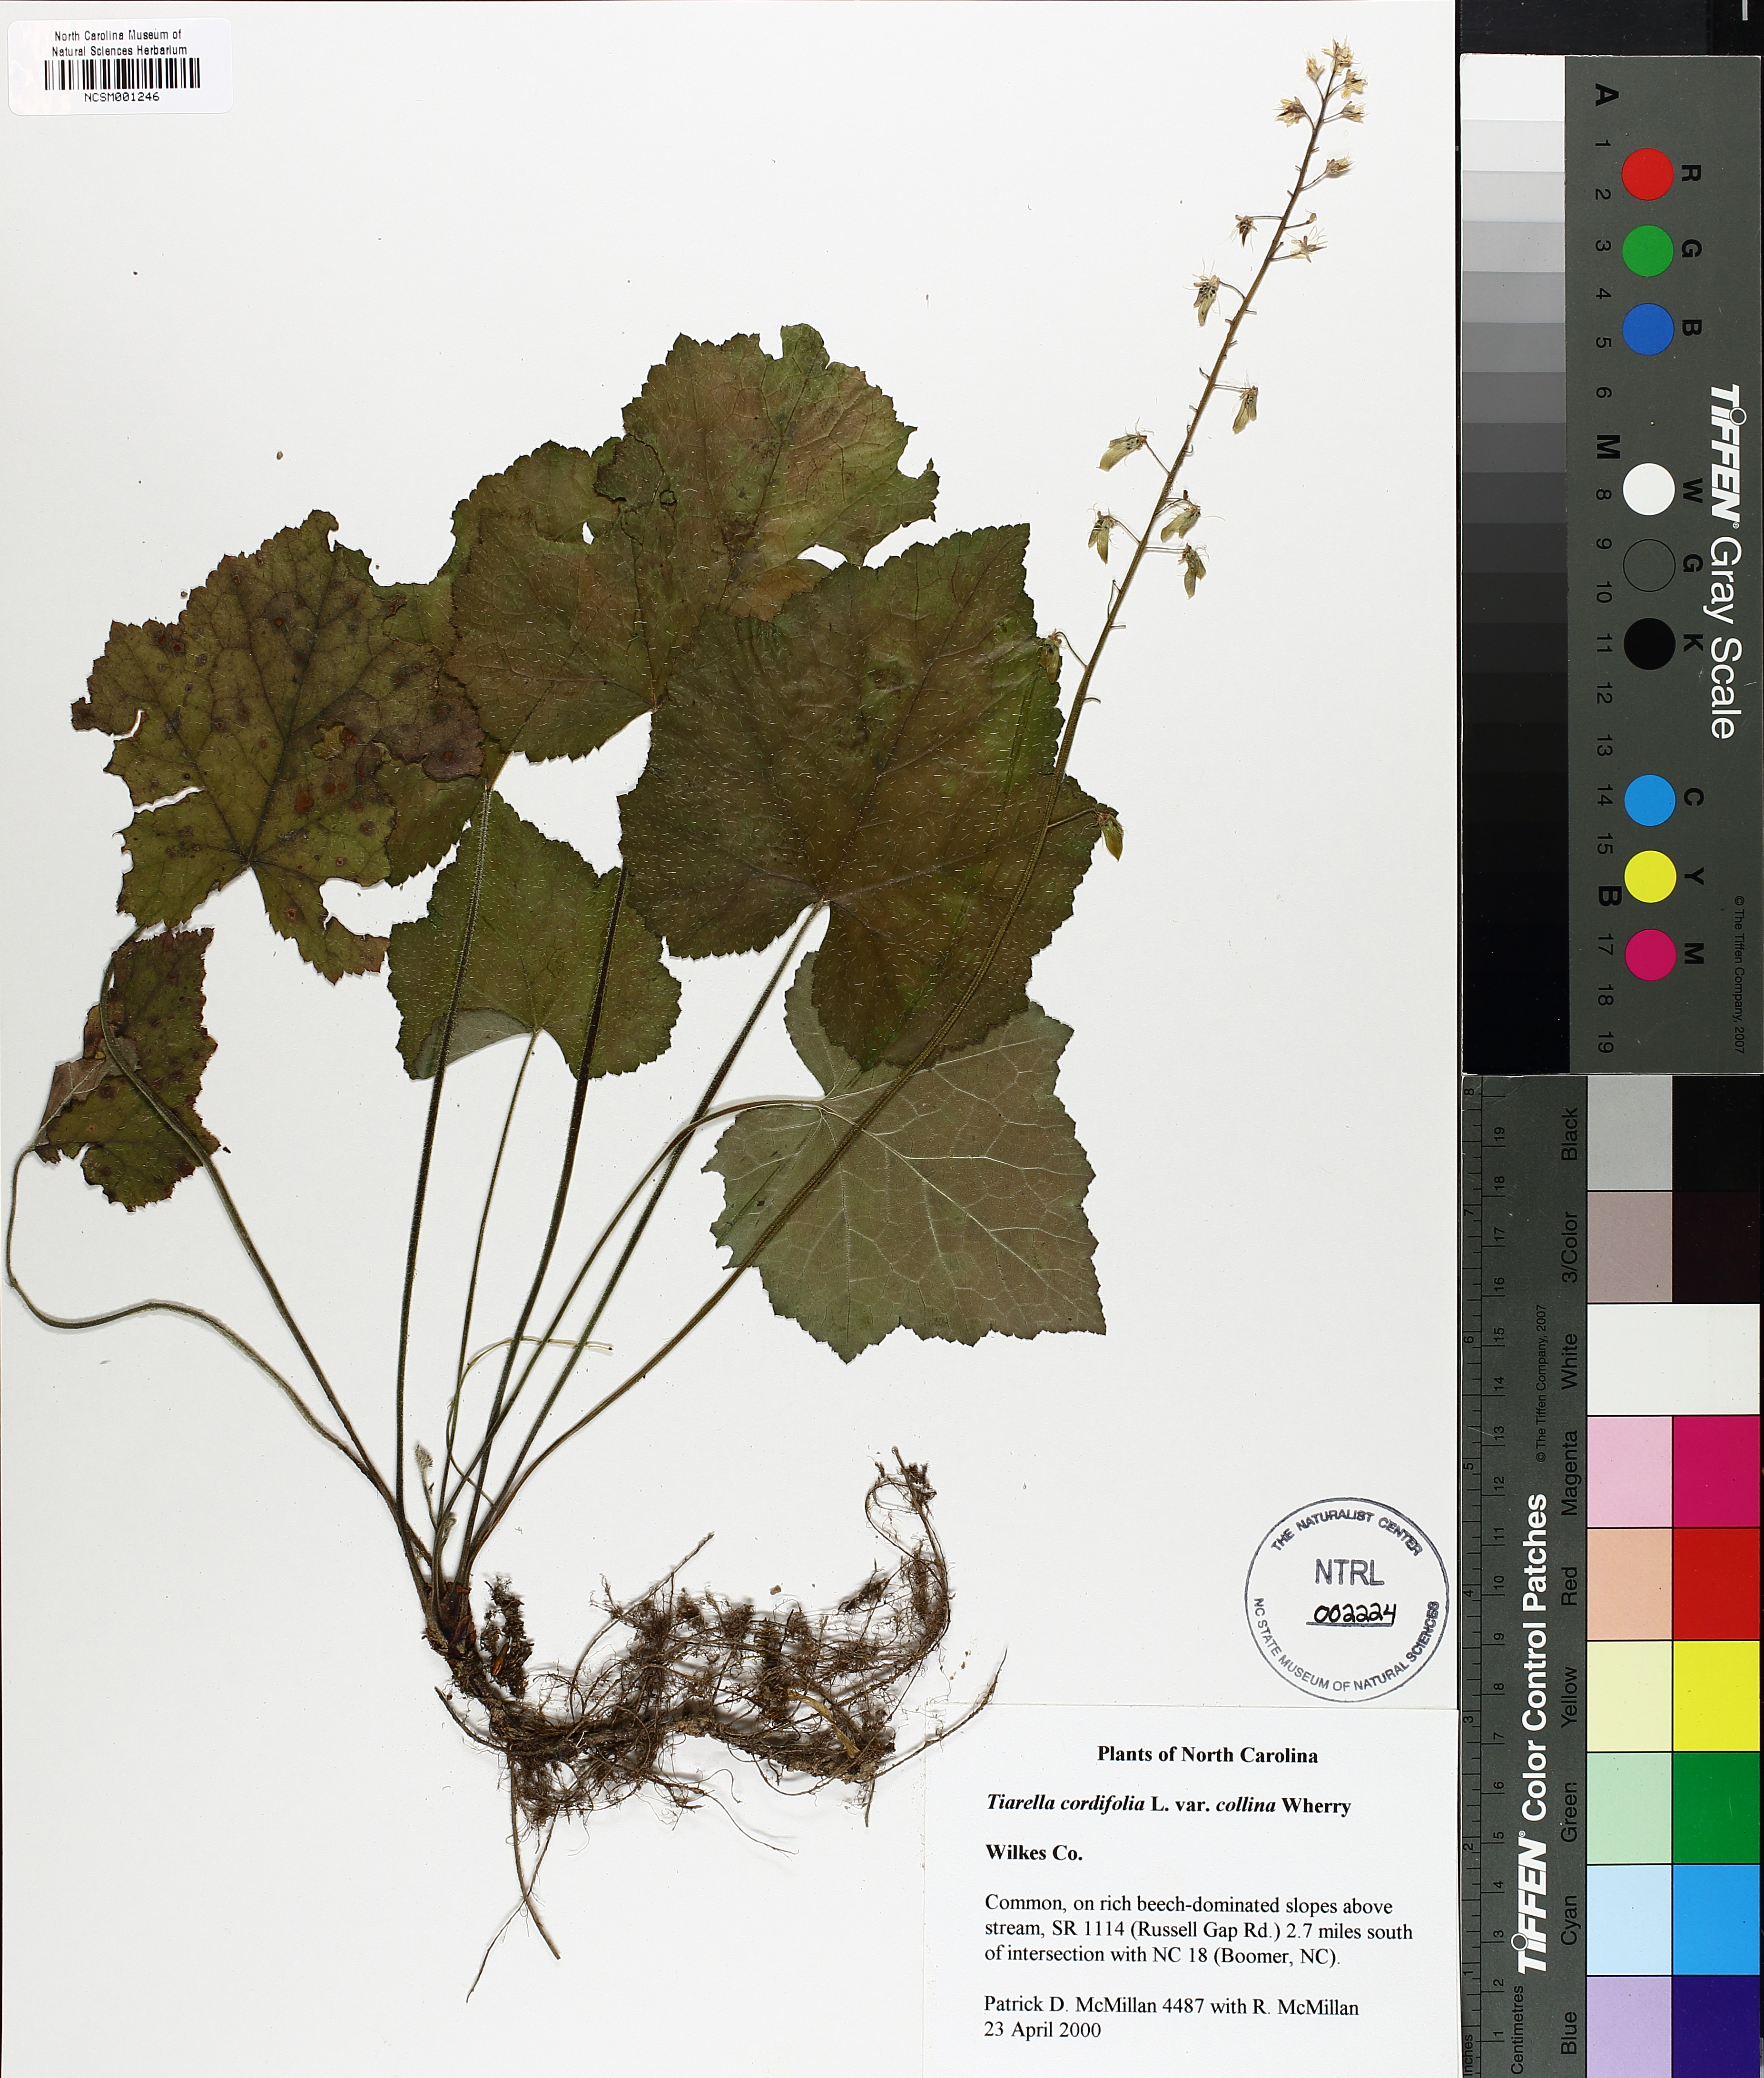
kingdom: Plantae
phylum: Tracheophyta
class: Magnoliopsida
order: Saxifragales
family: Saxifragaceae
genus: Tiarella
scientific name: Tiarella cordifolia
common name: Foamflower
